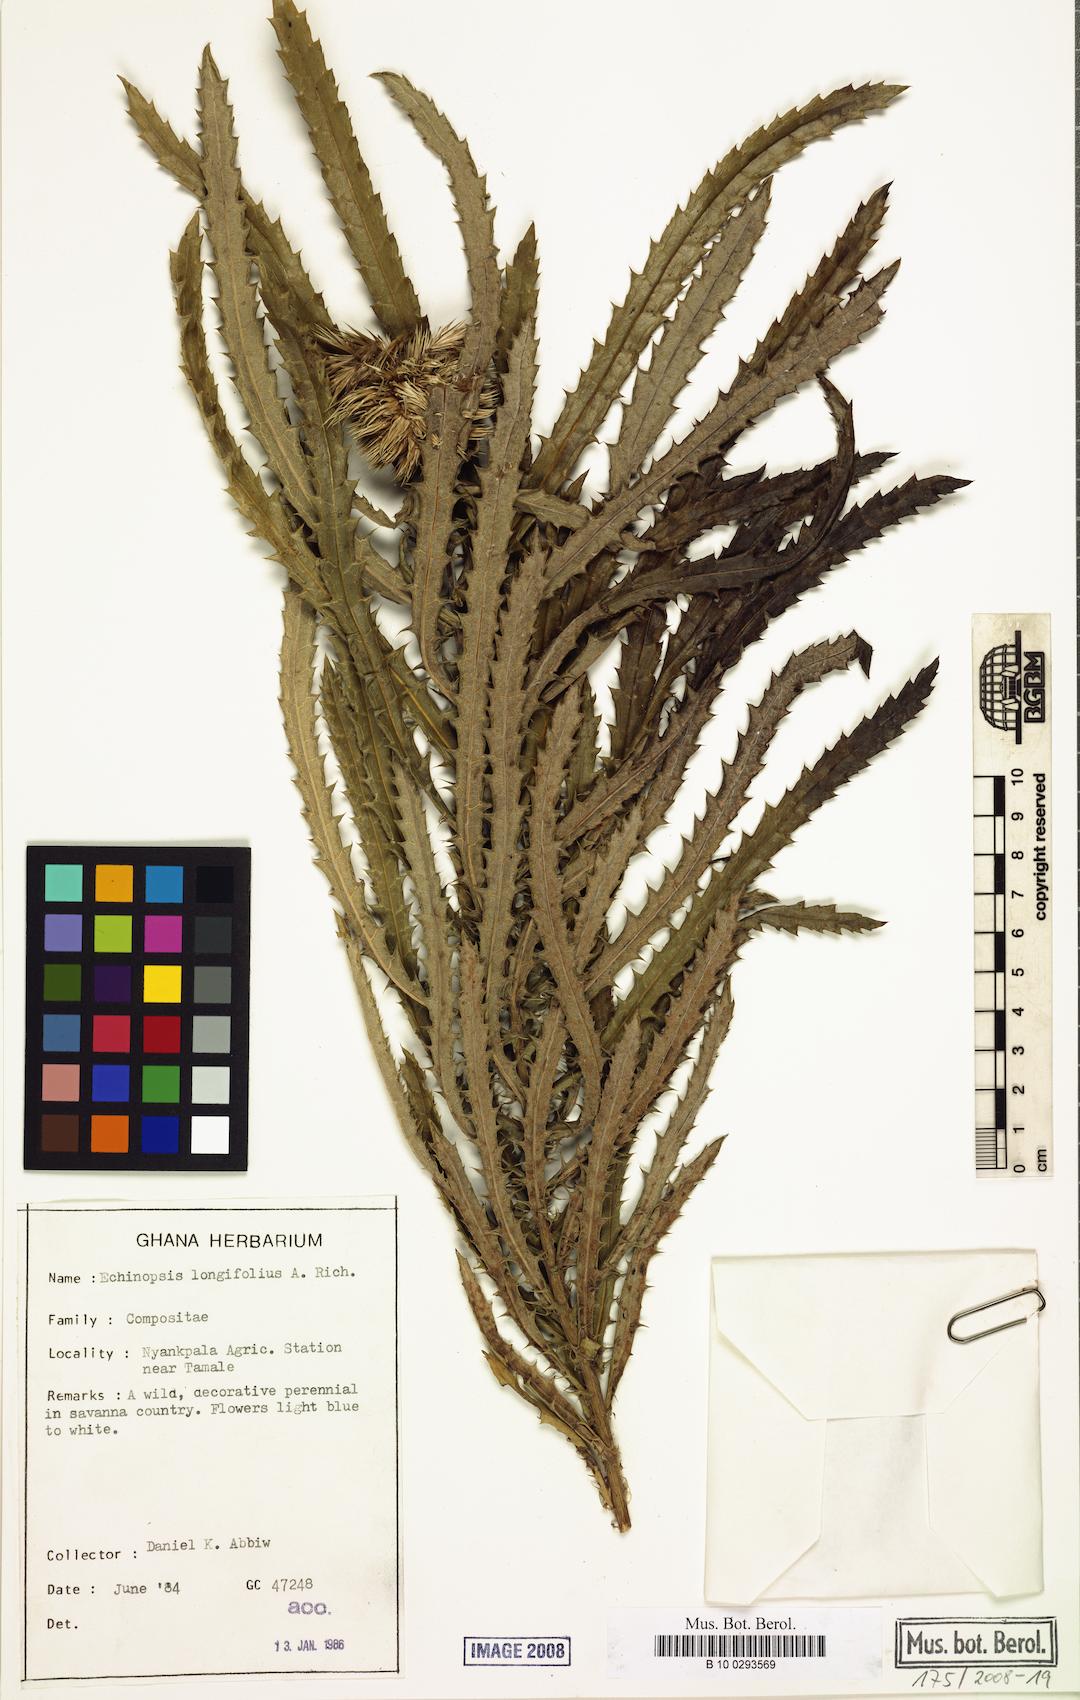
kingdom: Plantae
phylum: Tracheophyta
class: Magnoliopsida
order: Asterales
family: Asteraceae
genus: Echinops
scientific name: Echinops longifolius
